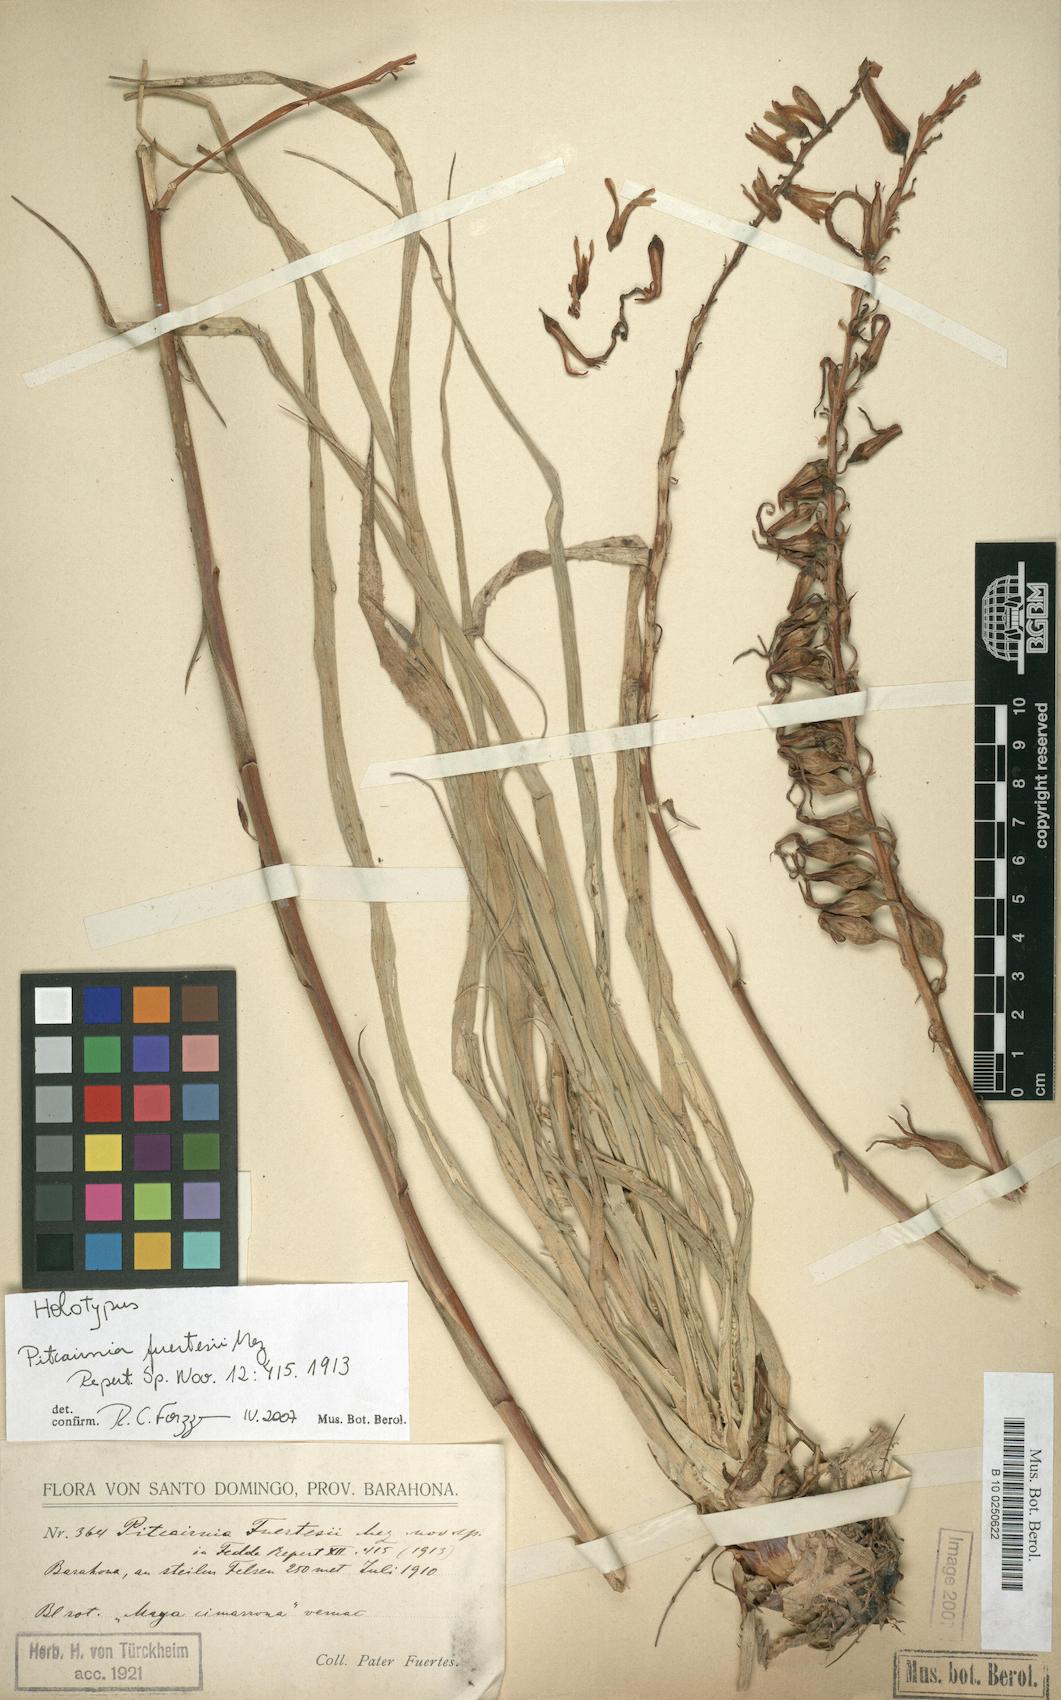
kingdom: Plantae
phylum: Tracheophyta
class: Liliopsida
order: Poales
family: Bromeliaceae
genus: Pitcairnia
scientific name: Pitcairnia fuertesii
